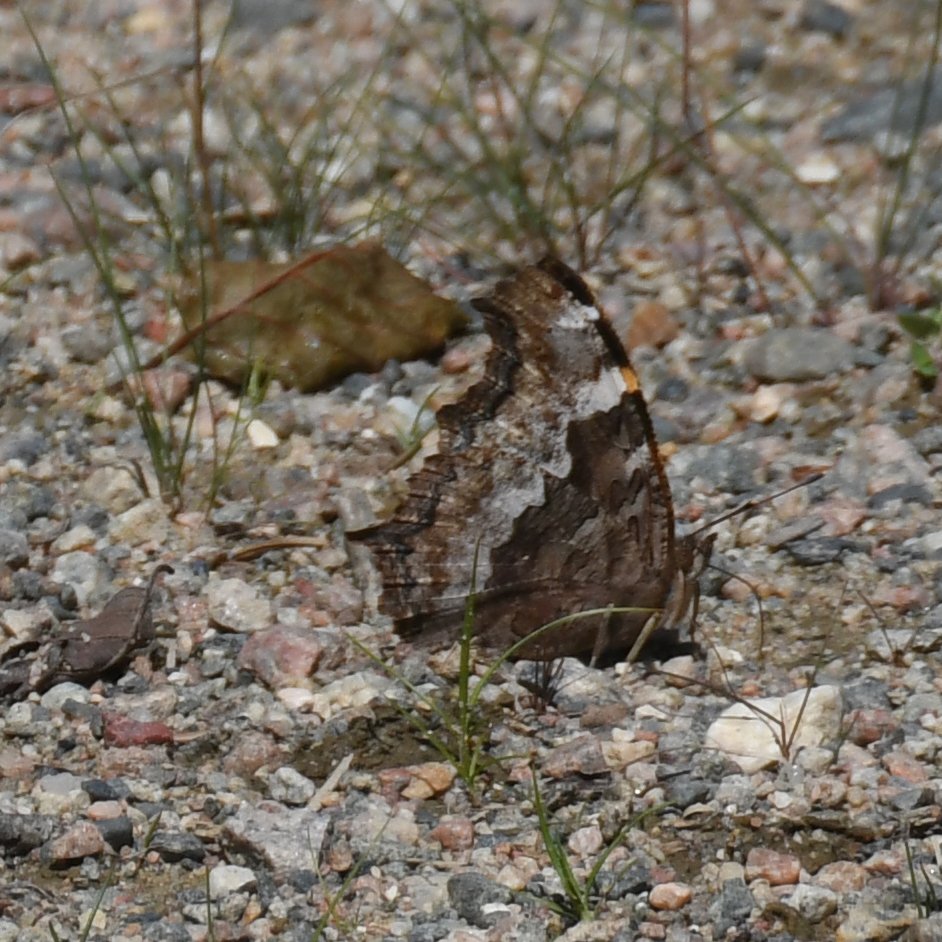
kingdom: Animalia
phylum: Arthropoda
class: Insecta
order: Lepidoptera
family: Nymphalidae
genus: Polygonia
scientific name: Polygonia vaualbum
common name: Compton Tortoiseshell
